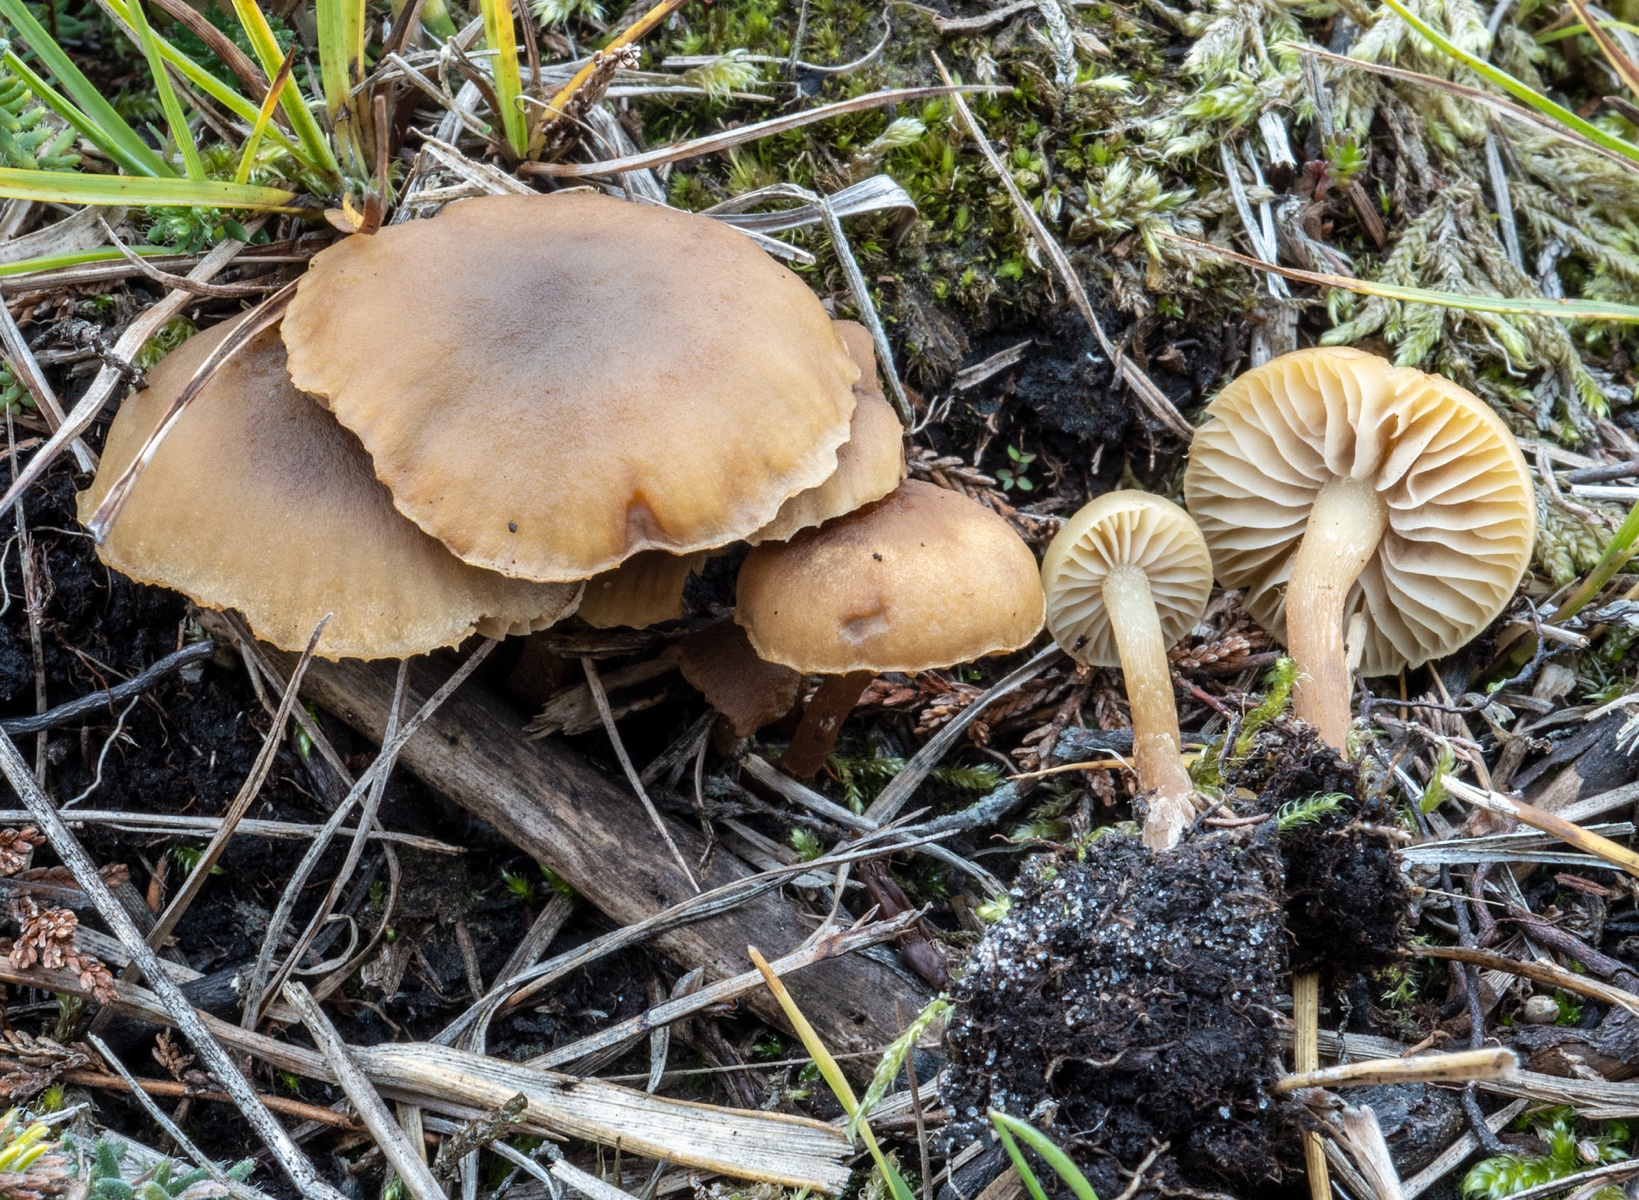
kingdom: Fungi
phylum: Basidiomycota
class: Agaricomycetes
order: Agaricales
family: Strophariaceae
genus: Hypholoma
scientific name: Hypholoma subericaeum
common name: eng-svovlhat
